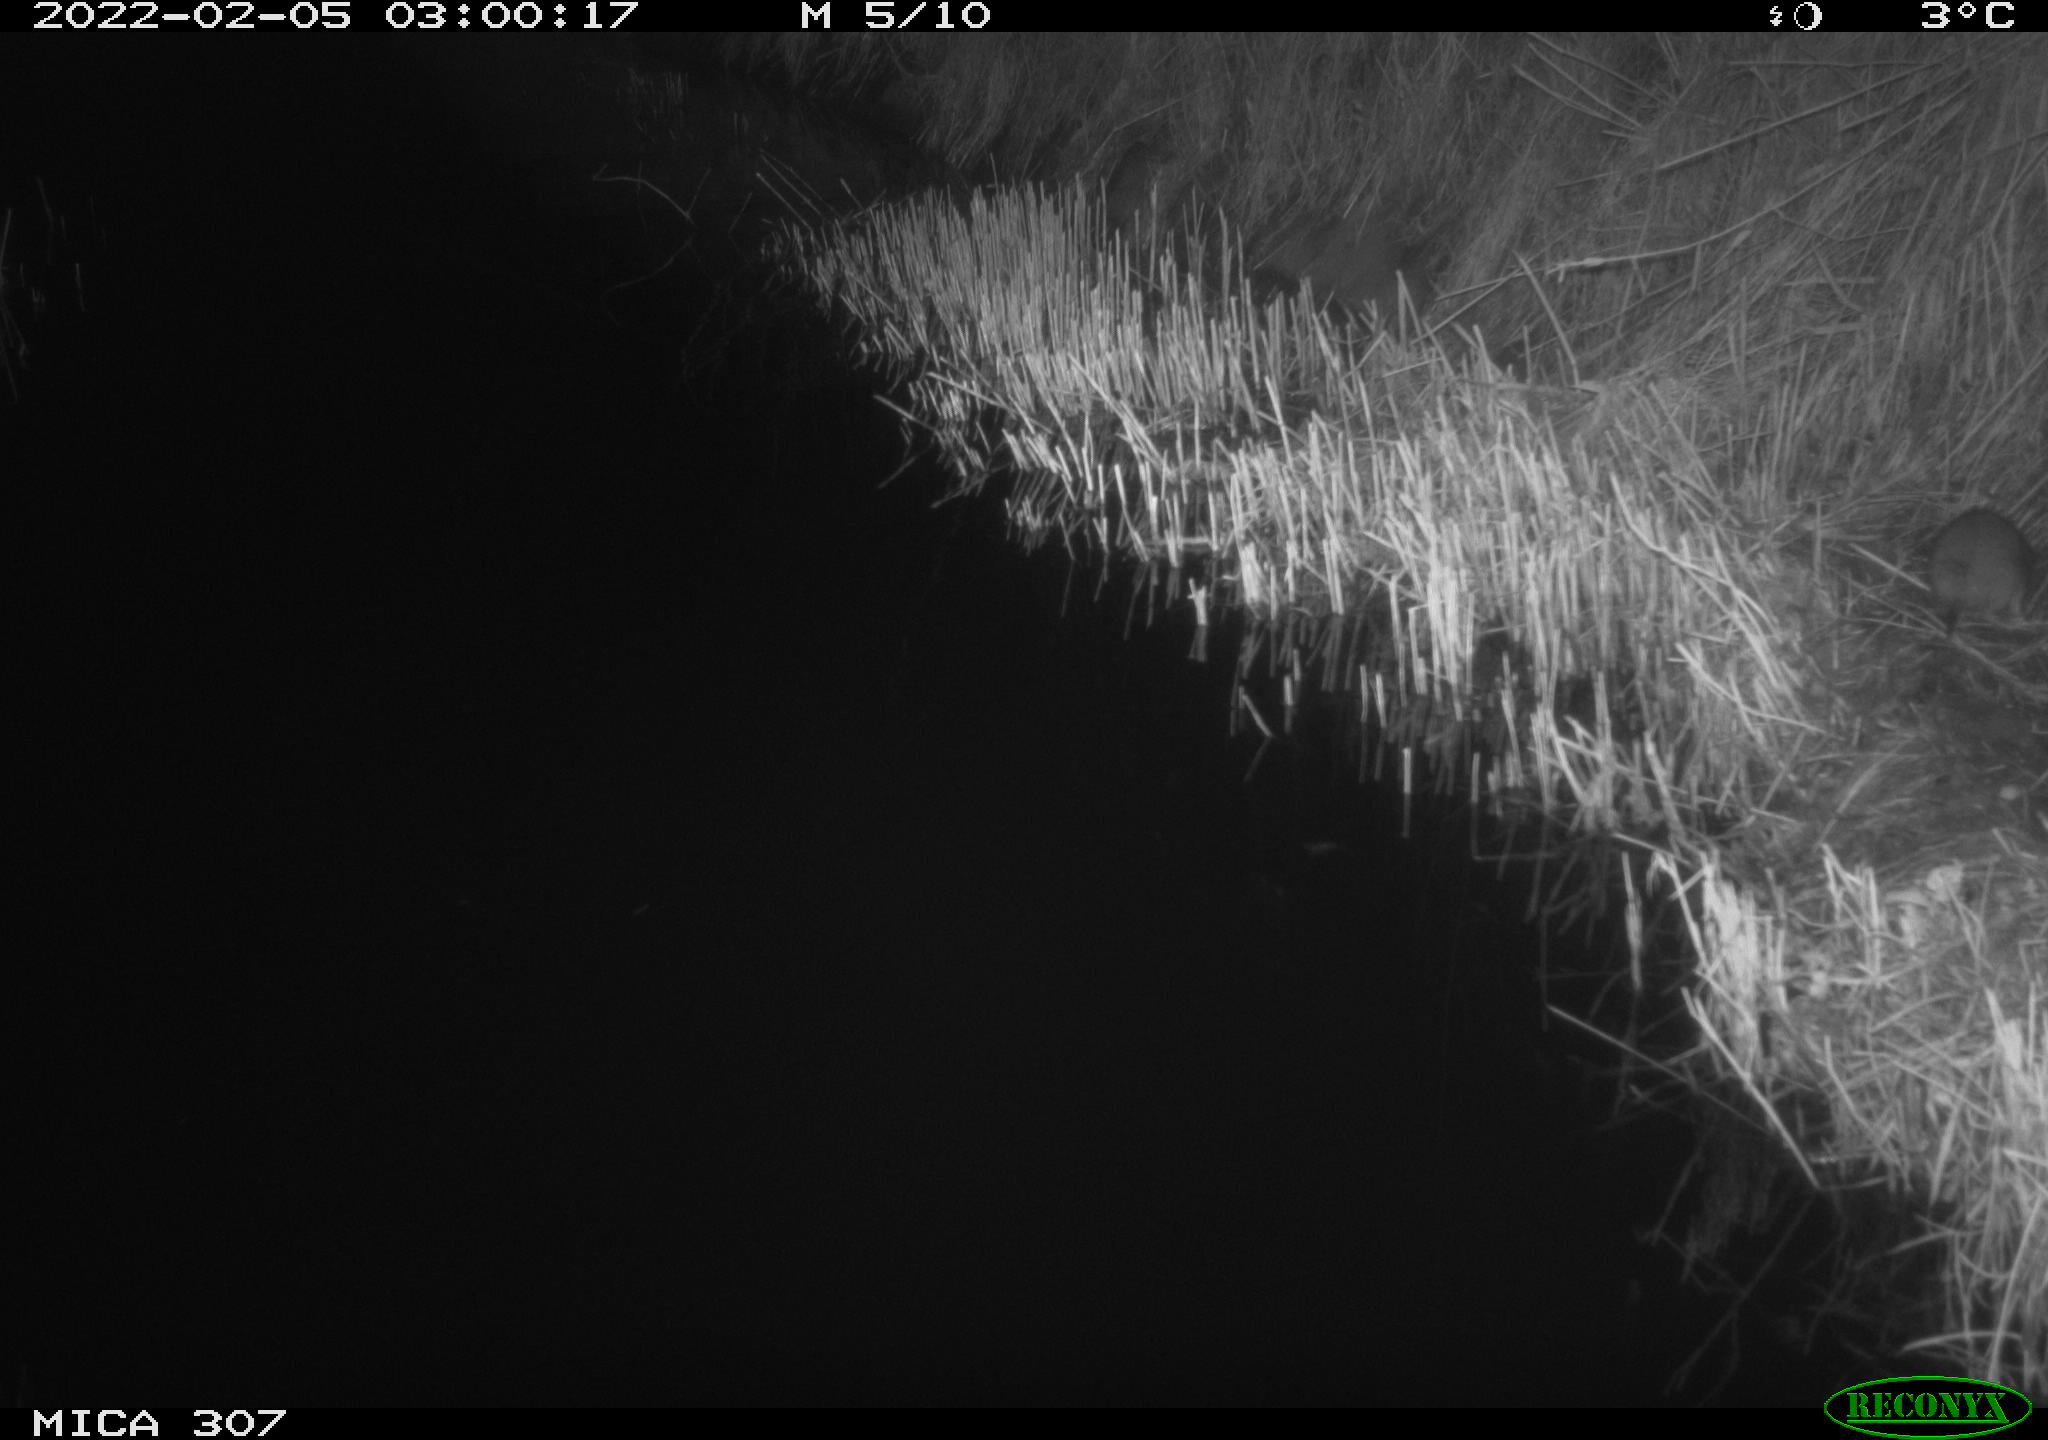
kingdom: Animalia
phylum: Chordata
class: Mammalia
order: Rodentia
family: Muridae
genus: Rattus
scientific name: Rattus norvegicus
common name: Brown rat
